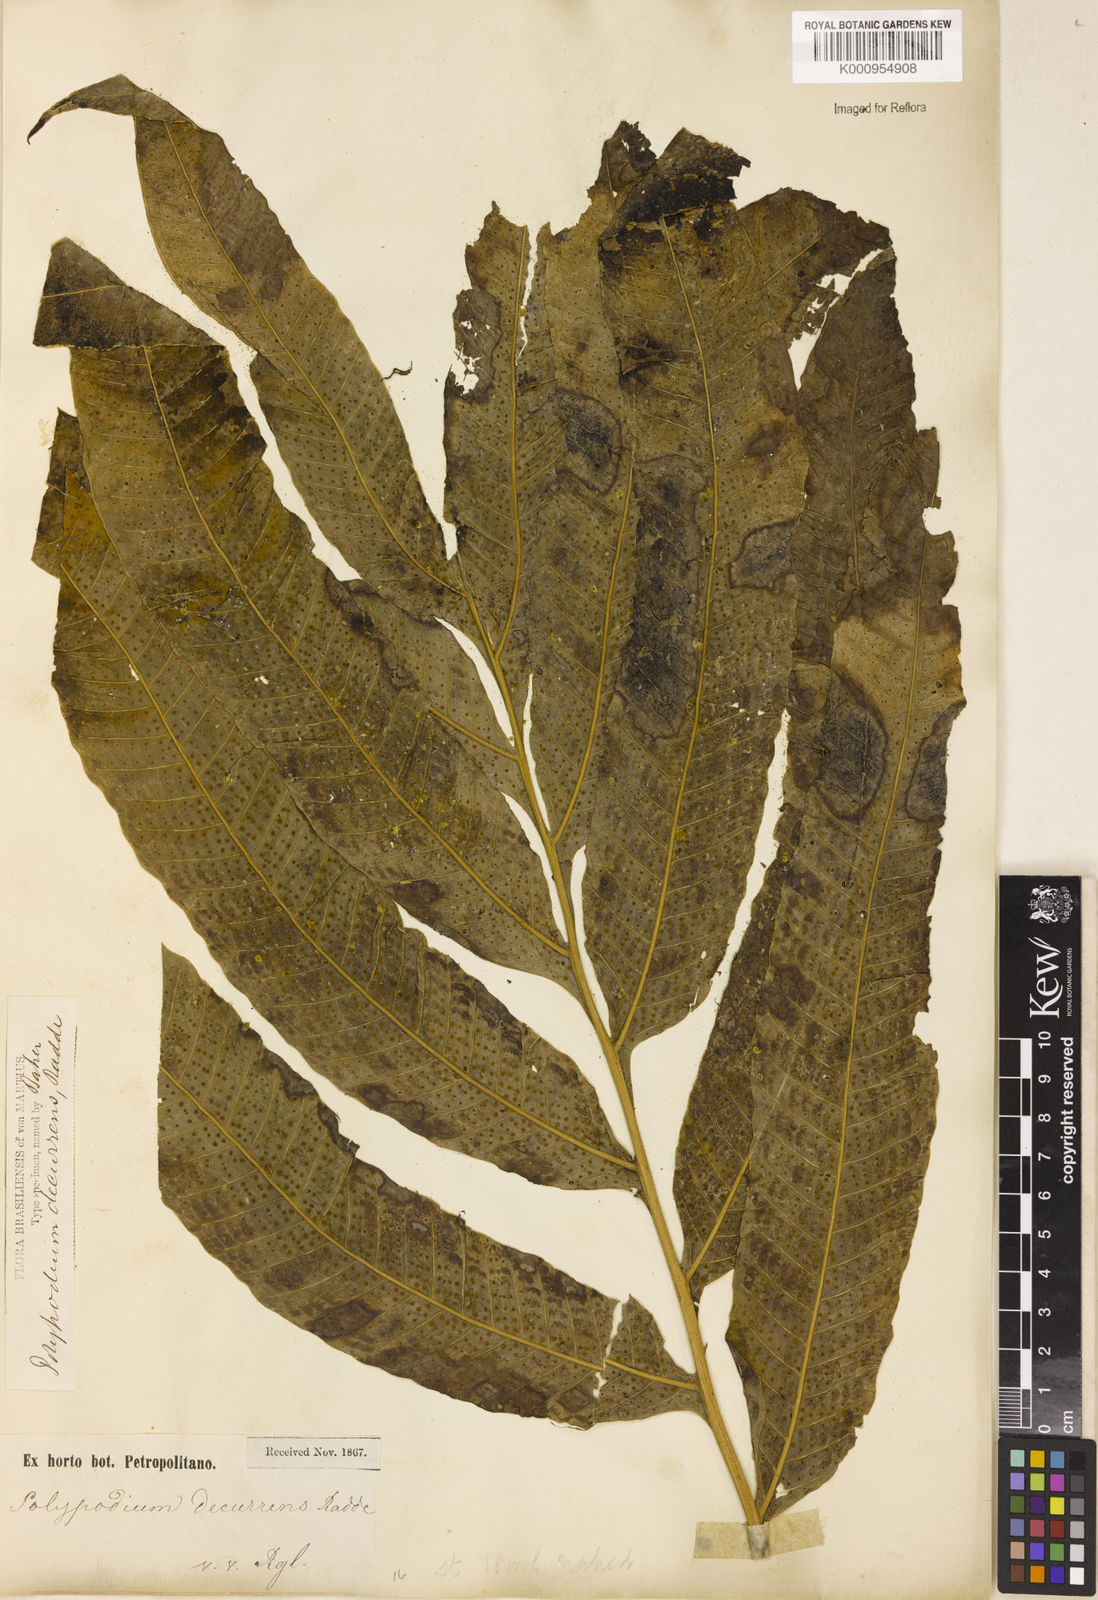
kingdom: Plantae
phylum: Tracheophyta
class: Polypodiopsida
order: Polypodiales
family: Polypodiaceae
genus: Campyloneurum
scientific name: Campyloneurum decurrens
